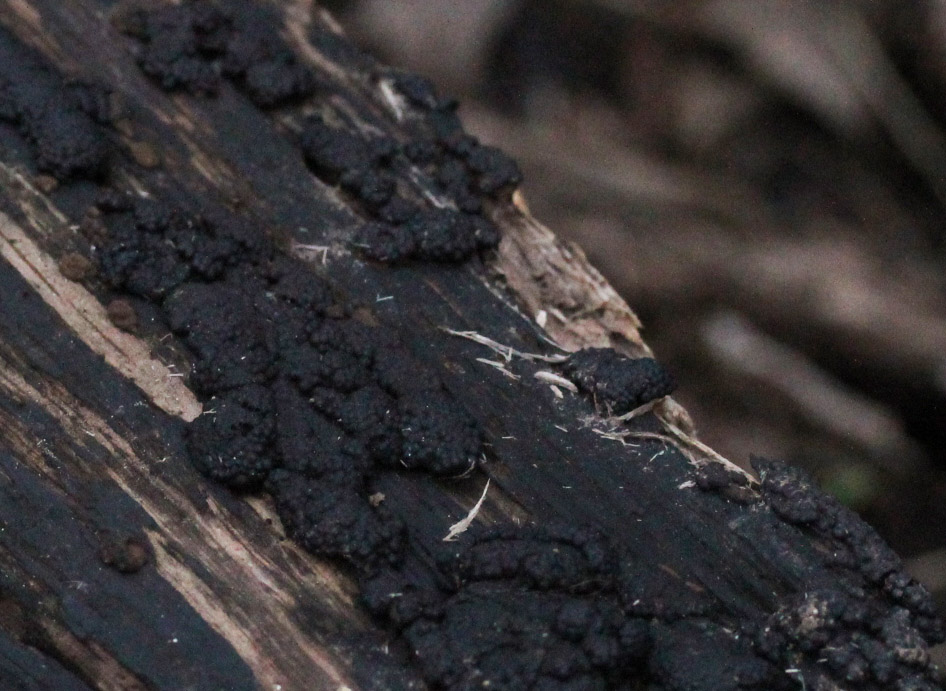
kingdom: Fungi
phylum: Ascomycota
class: Sordariomycetes
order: Xylariales
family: Hypoxylaceae
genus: Jackrogersella
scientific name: Jackrogersella multiformis
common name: foranderlig kulbær
